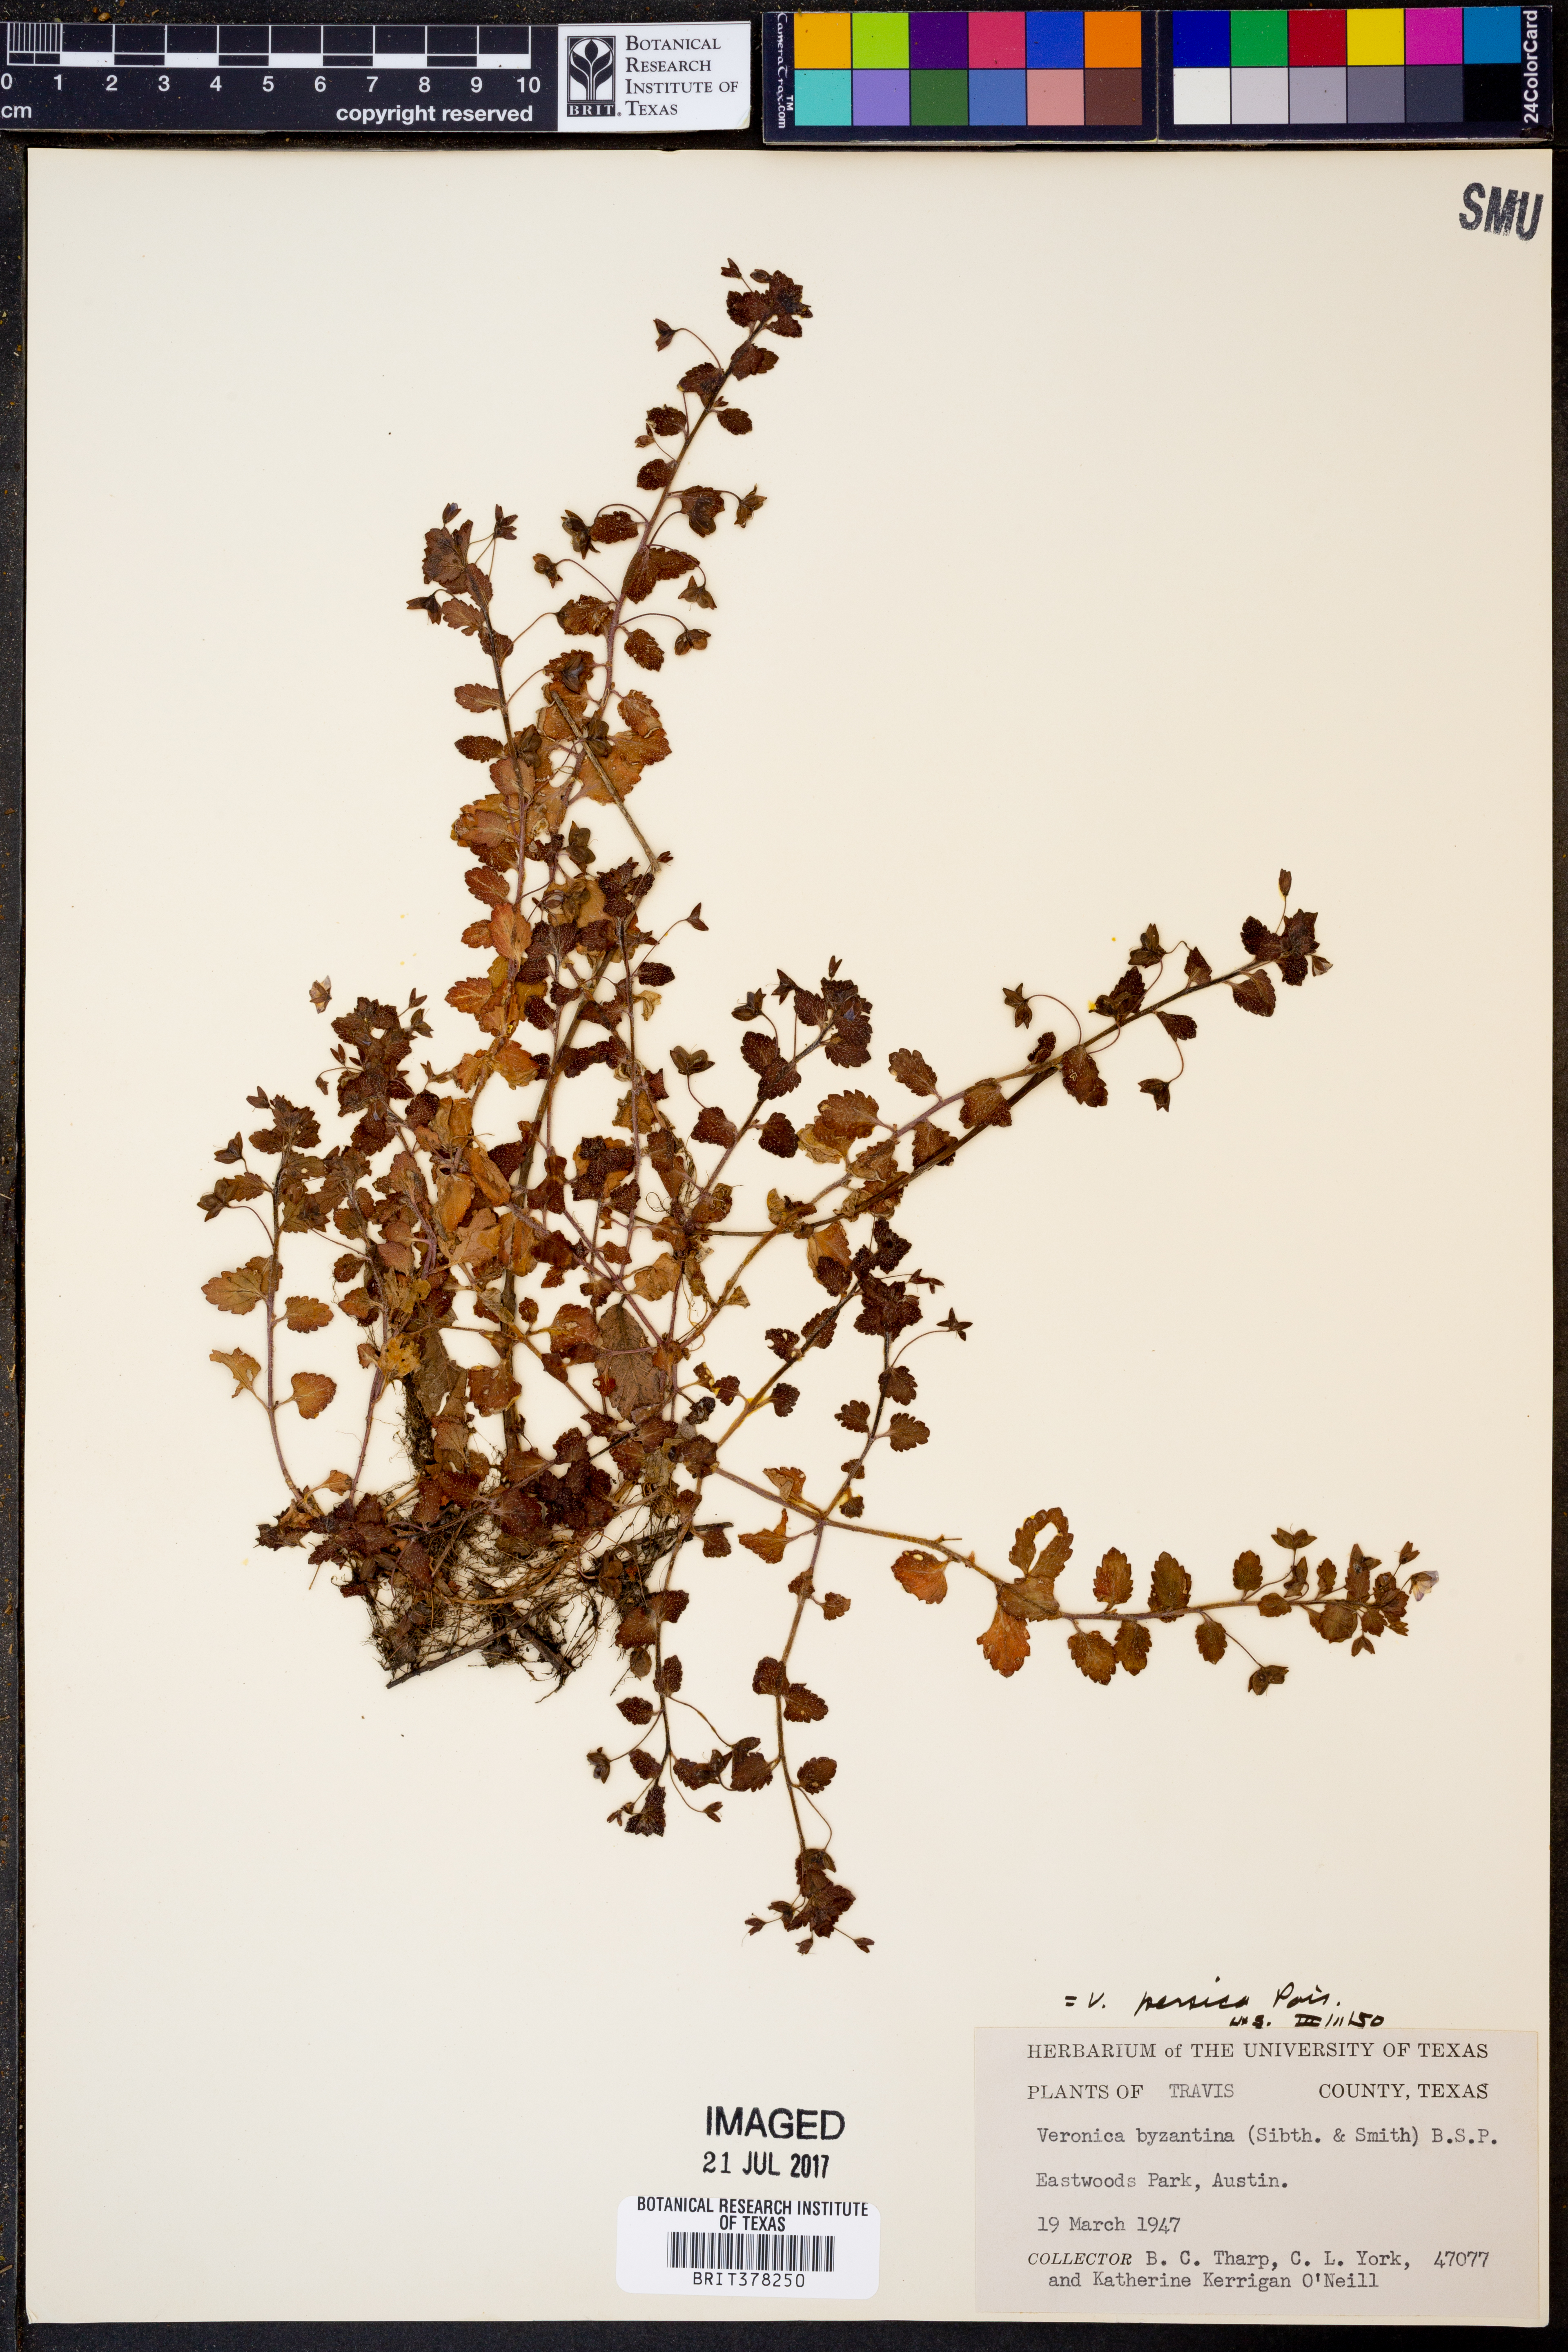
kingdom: Plantae
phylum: Tracheophyta
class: Magnoliopsida
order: Lamiales
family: Plantaginaceae
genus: Veronica
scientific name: Veronica persica
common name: Common field-speedwell
